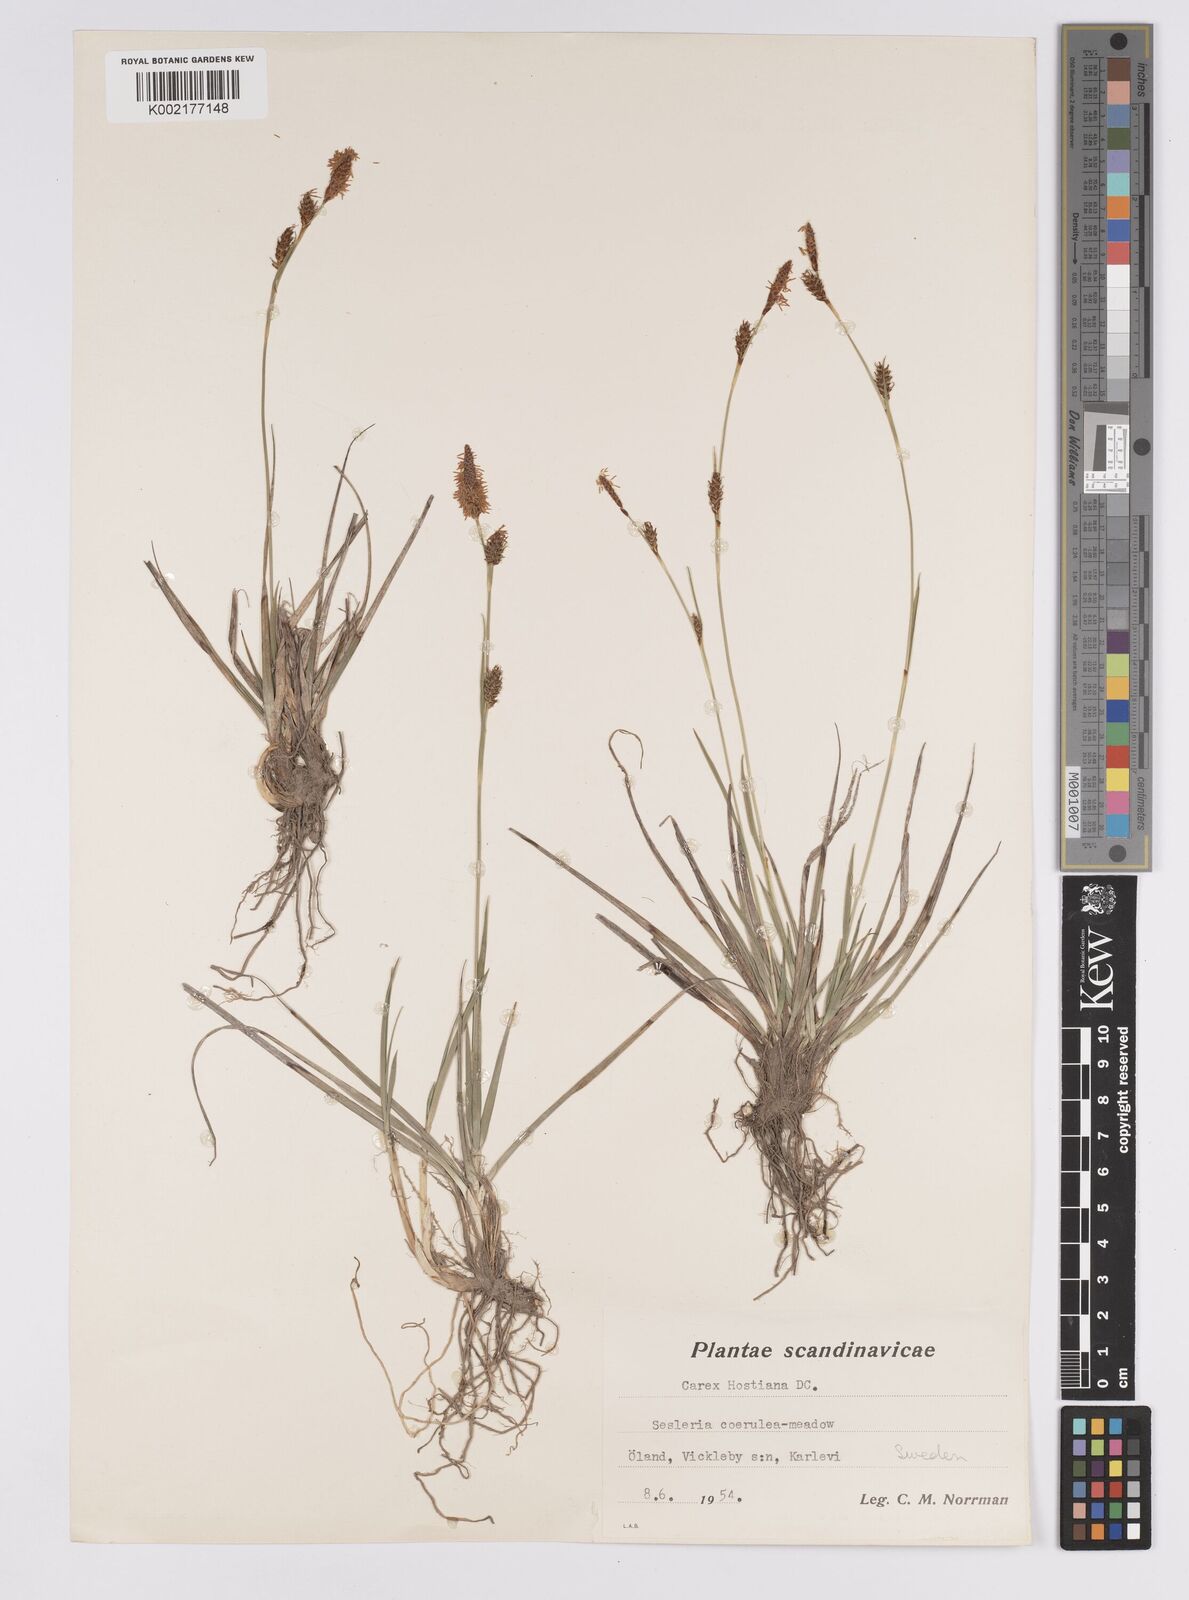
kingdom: Plantae
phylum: Tracheophyta
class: Liliopsida
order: Poales
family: Cyperaceae
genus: Carex
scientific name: Carex hostiana
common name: Tawny sedge
